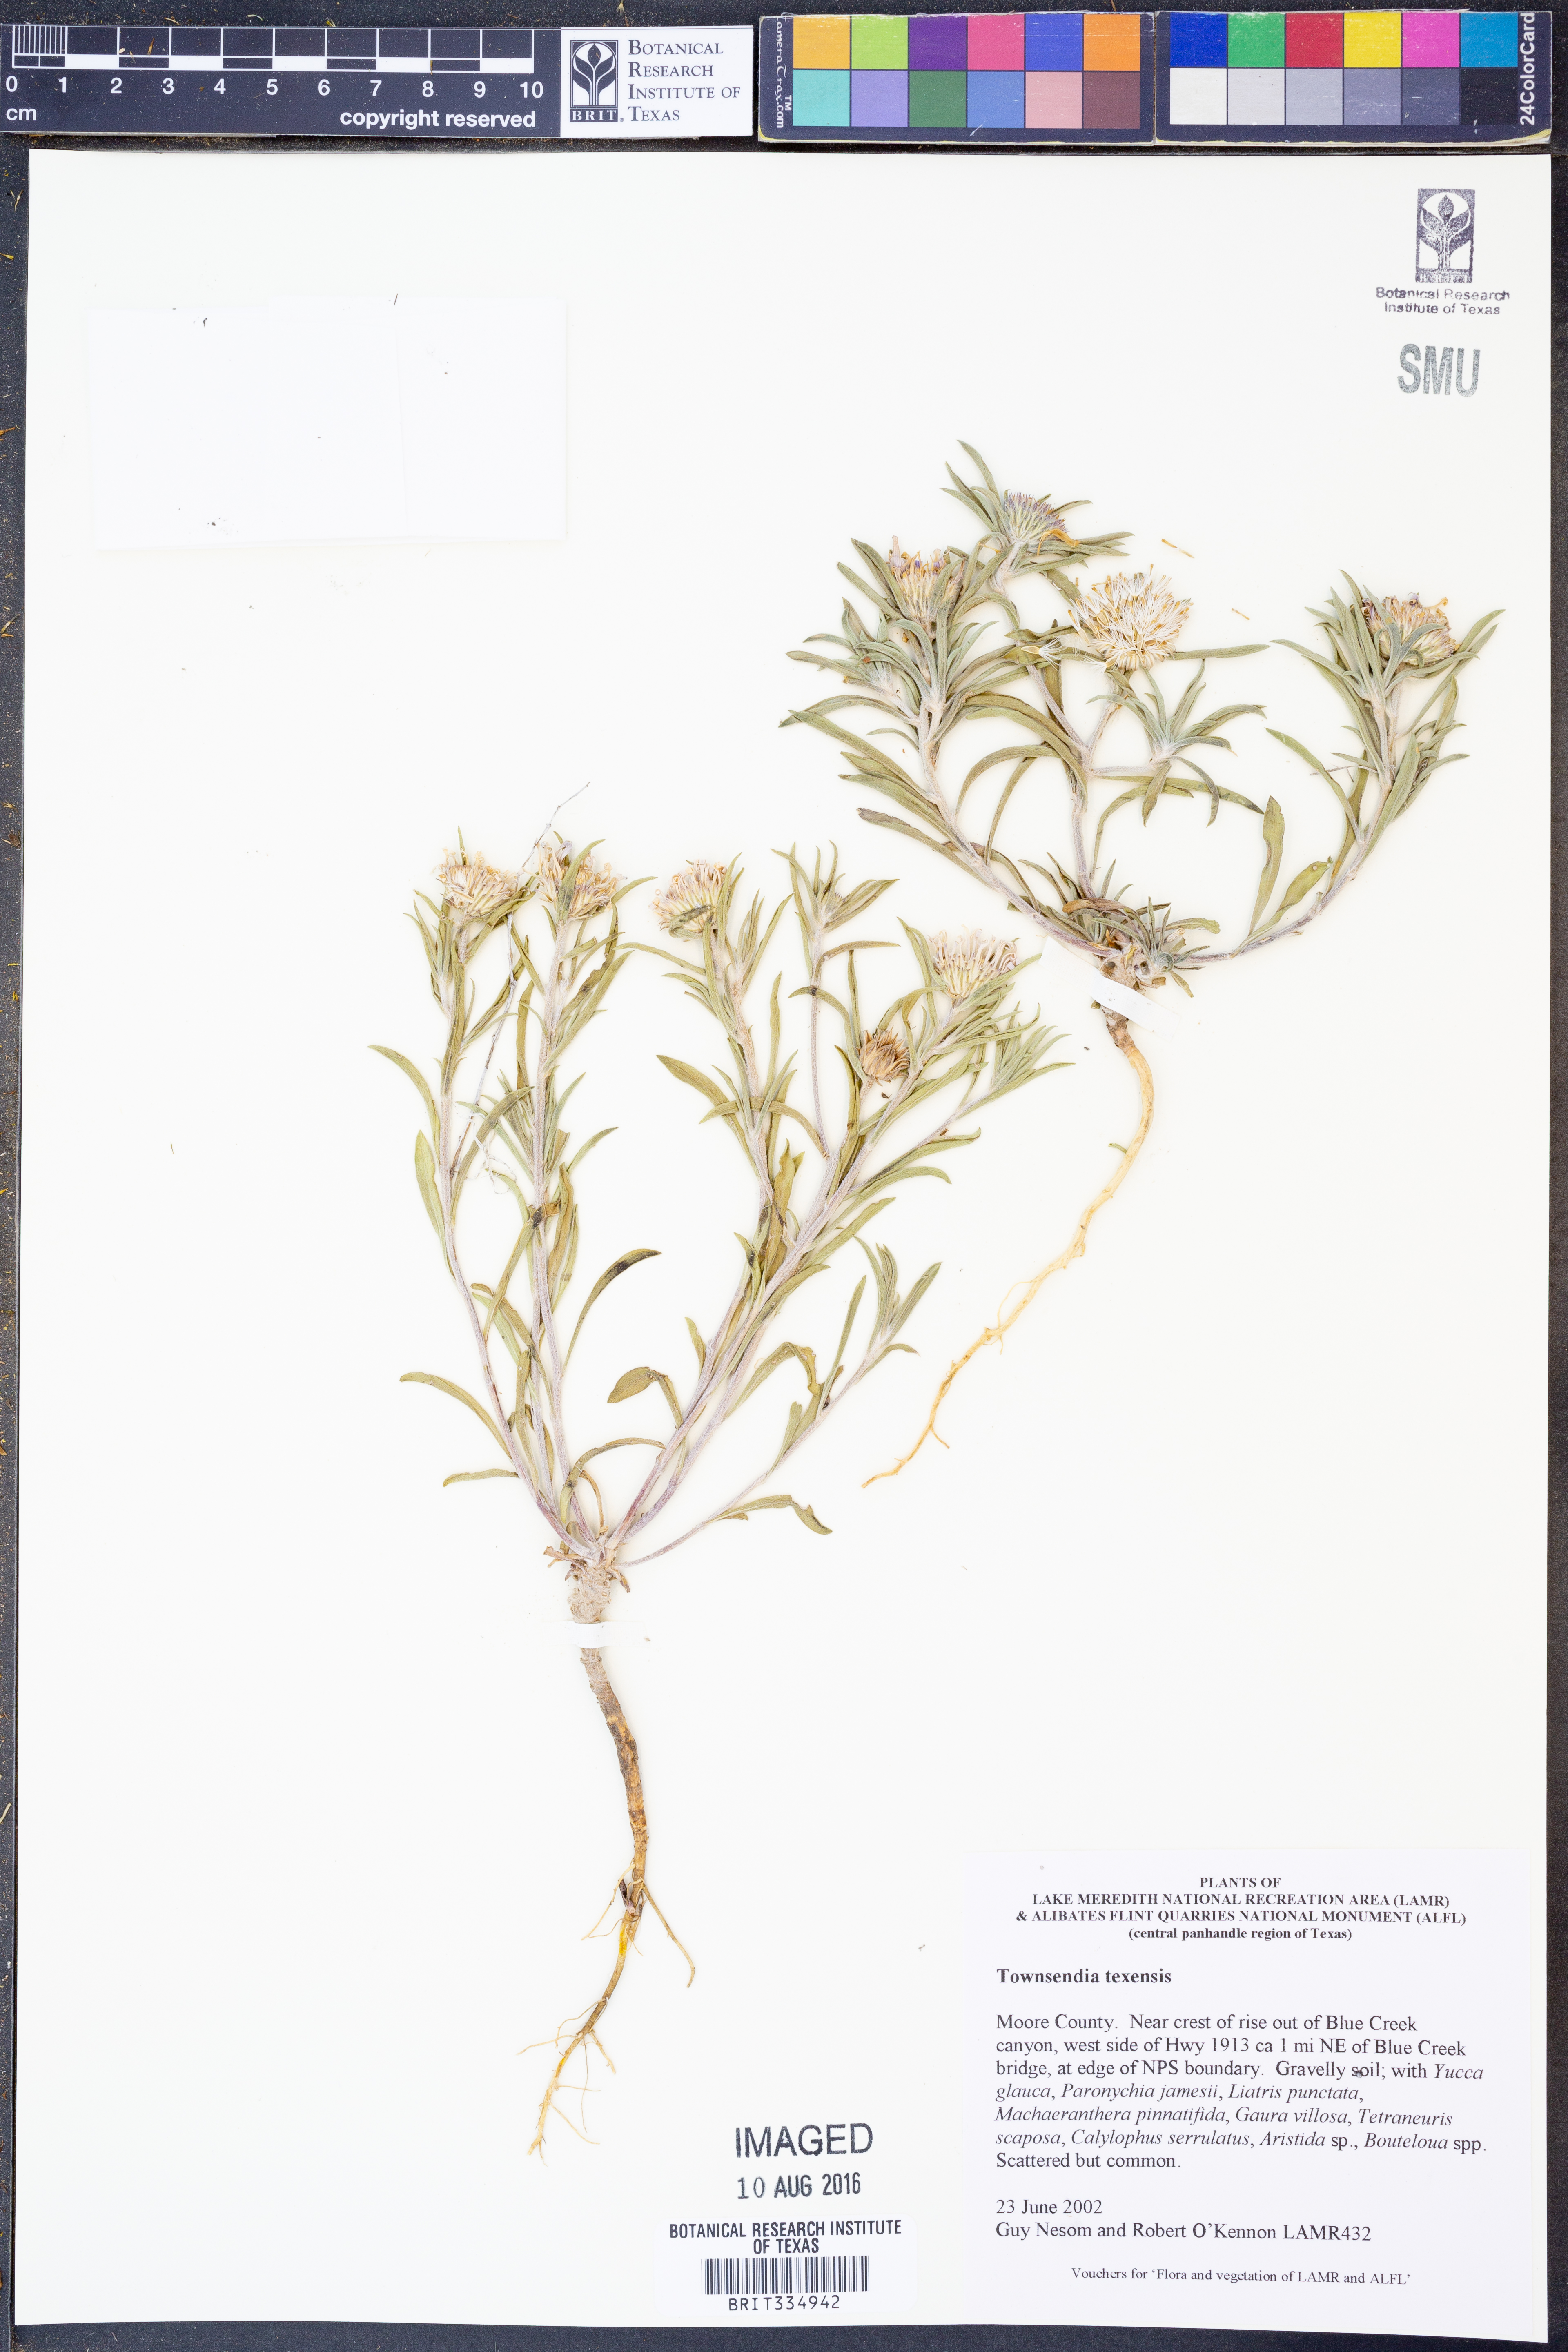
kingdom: Plantae
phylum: Tracheophyta
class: Magnoliopsida
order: Asterales
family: Asteraceae
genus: Townsendia
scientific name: Townsendia texensis
